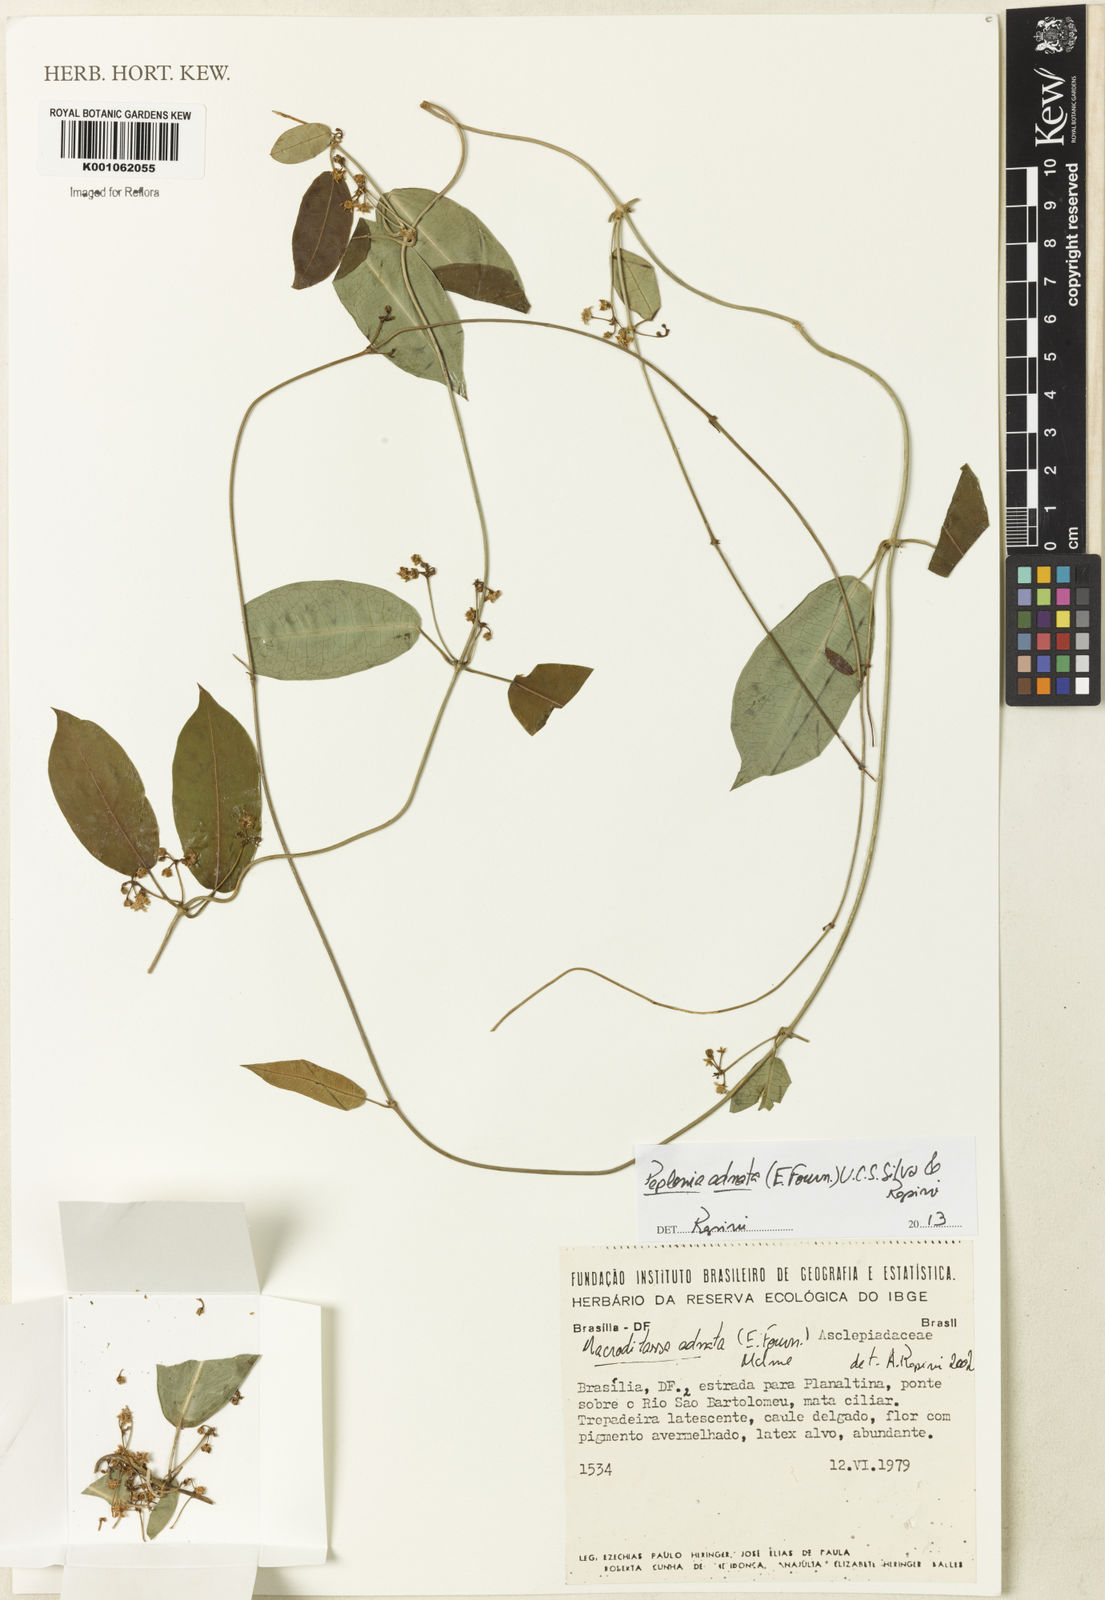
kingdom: Plantae
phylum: Tracheophyta
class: Magnoliopsida
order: Gentianales
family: Apocynaceae
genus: Peplonia
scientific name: Peplonia adnata
